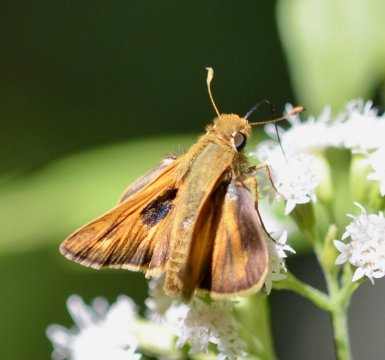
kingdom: Animalia
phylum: Arthropoda
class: Insecta
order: Lepidoptera
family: Hesperiidae
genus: Hylephila
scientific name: Hylephila phyleus
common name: Fiery Skipper
